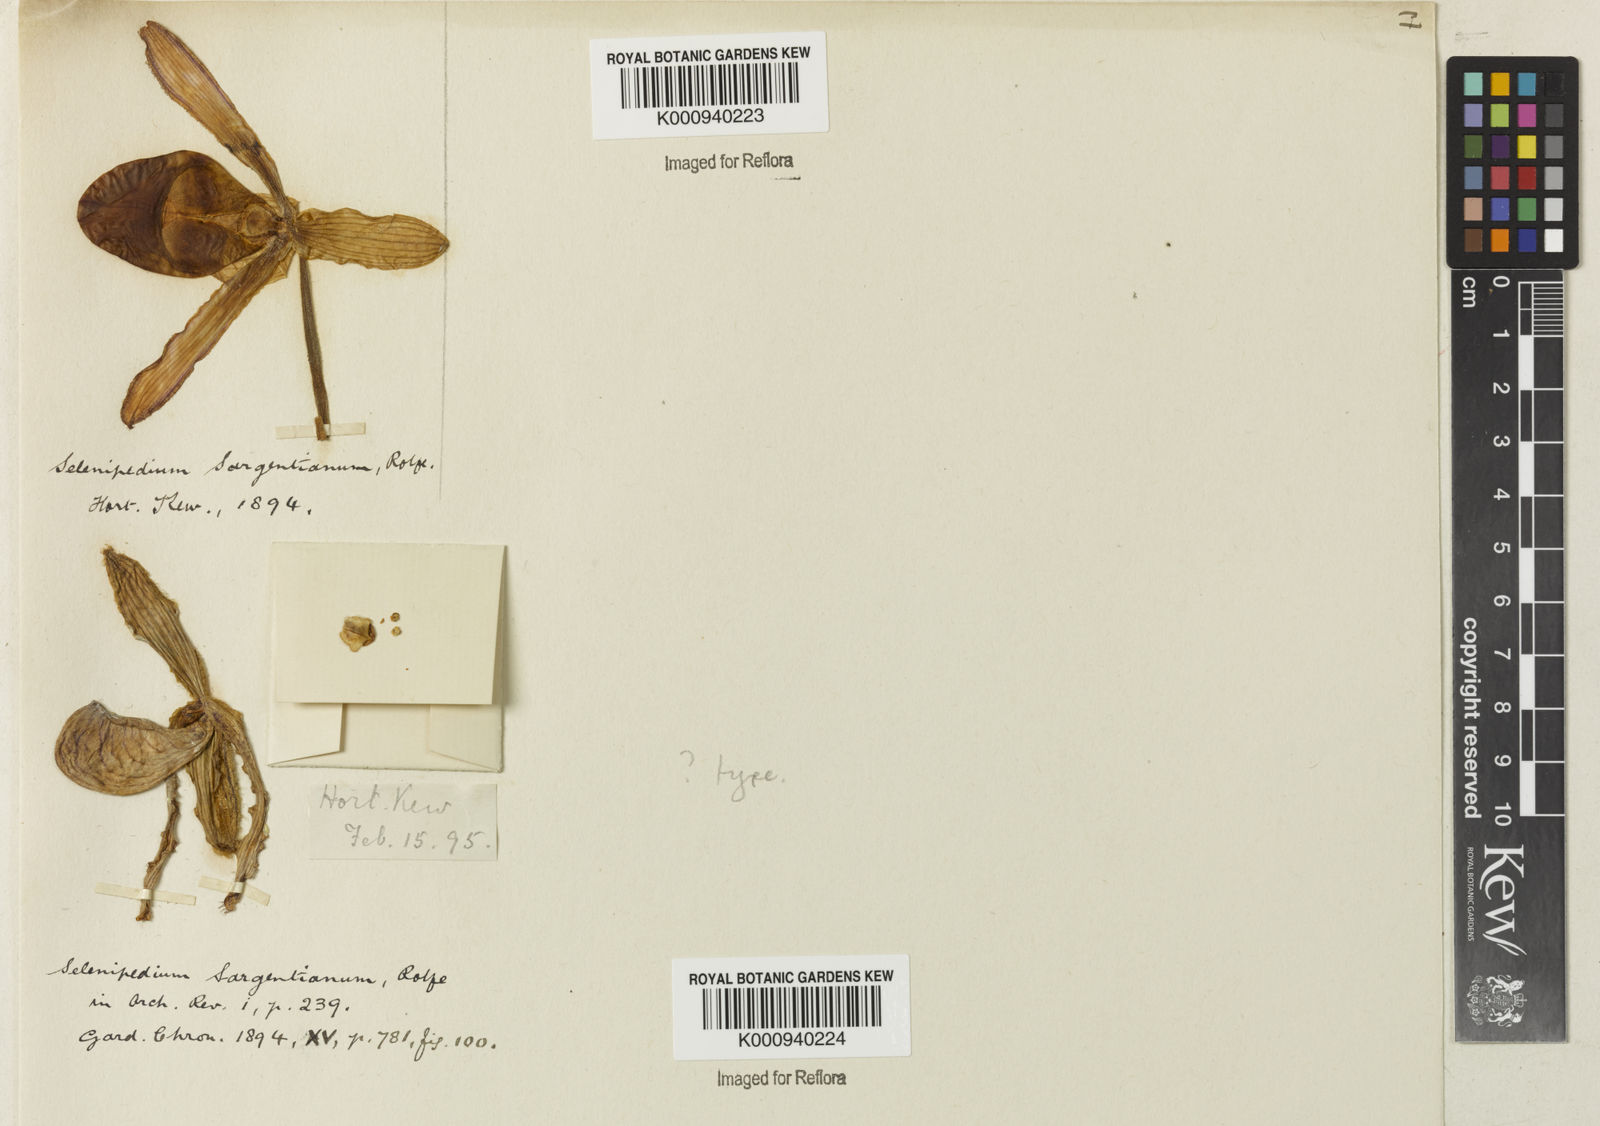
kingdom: Plantae
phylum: Tracheophyta
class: Liliopsida
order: Asparagales
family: Orchidaceae
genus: Phragmipedium
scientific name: Phragmipedium sargentianum
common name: Sargent's phragmipedium
